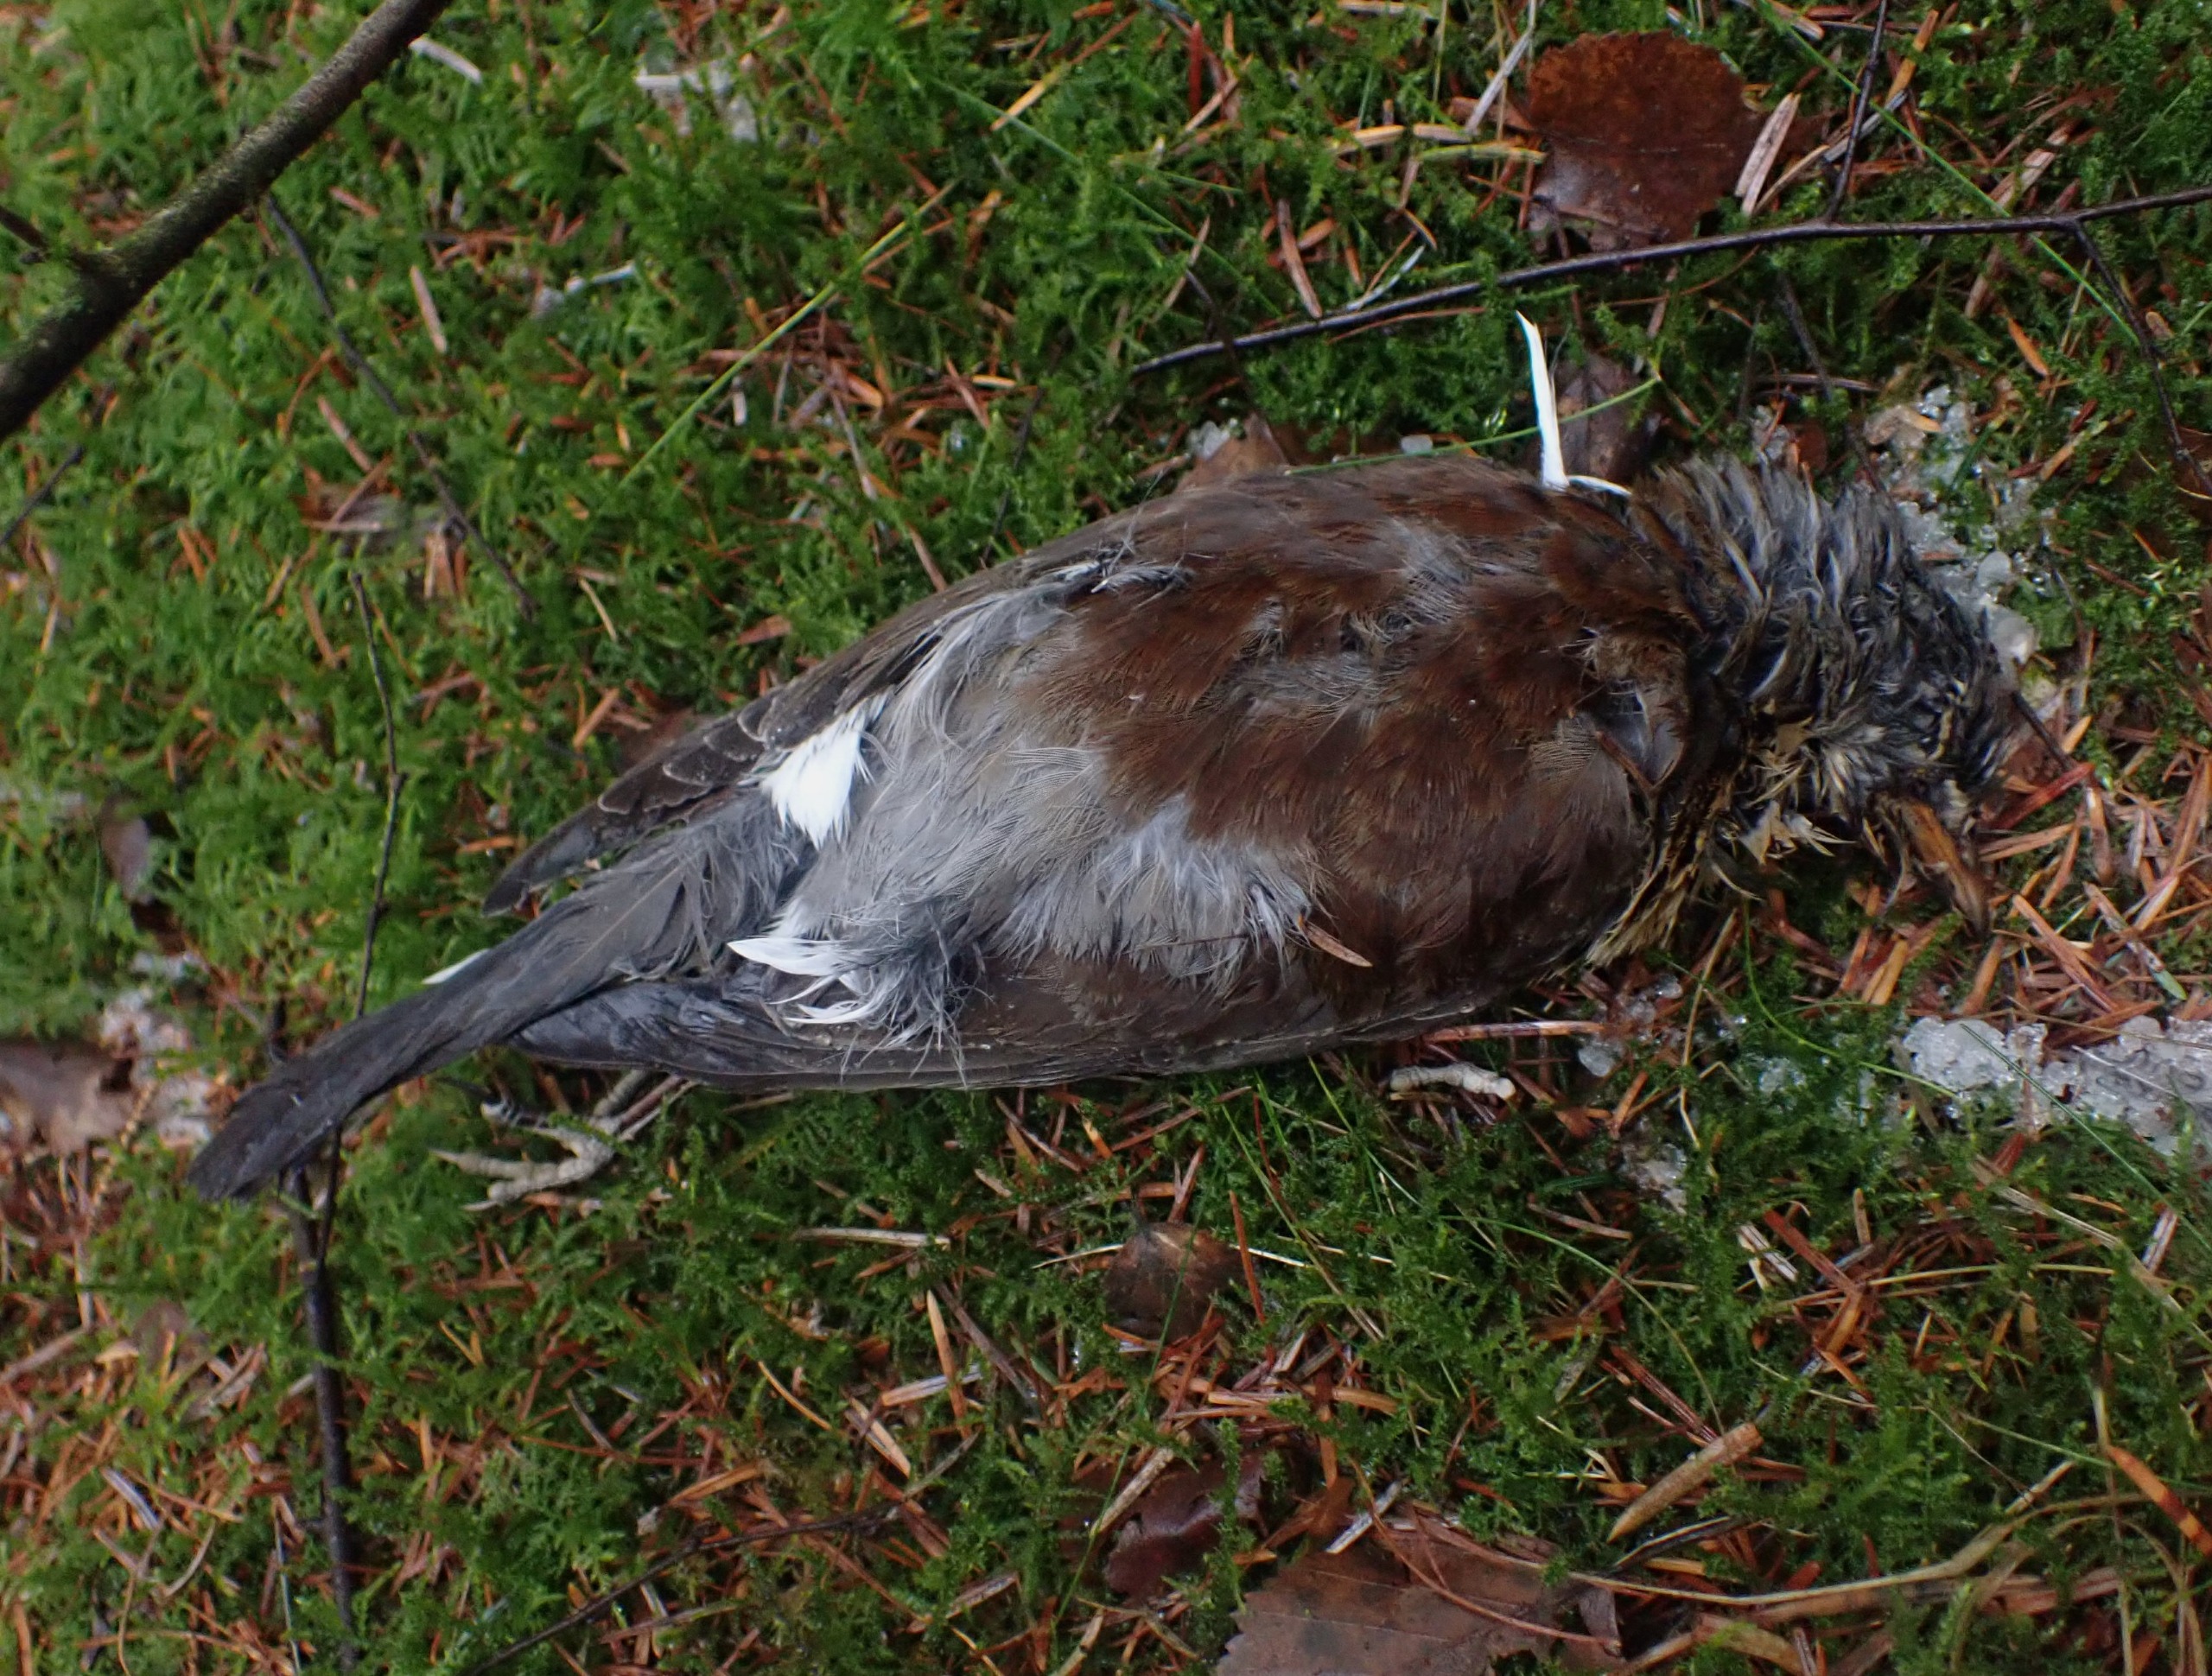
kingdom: Animalia
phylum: Chordata
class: Aves
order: Passeriformes
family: Turdidae
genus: Turdus
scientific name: Turdus pilaris
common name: Sjagger
